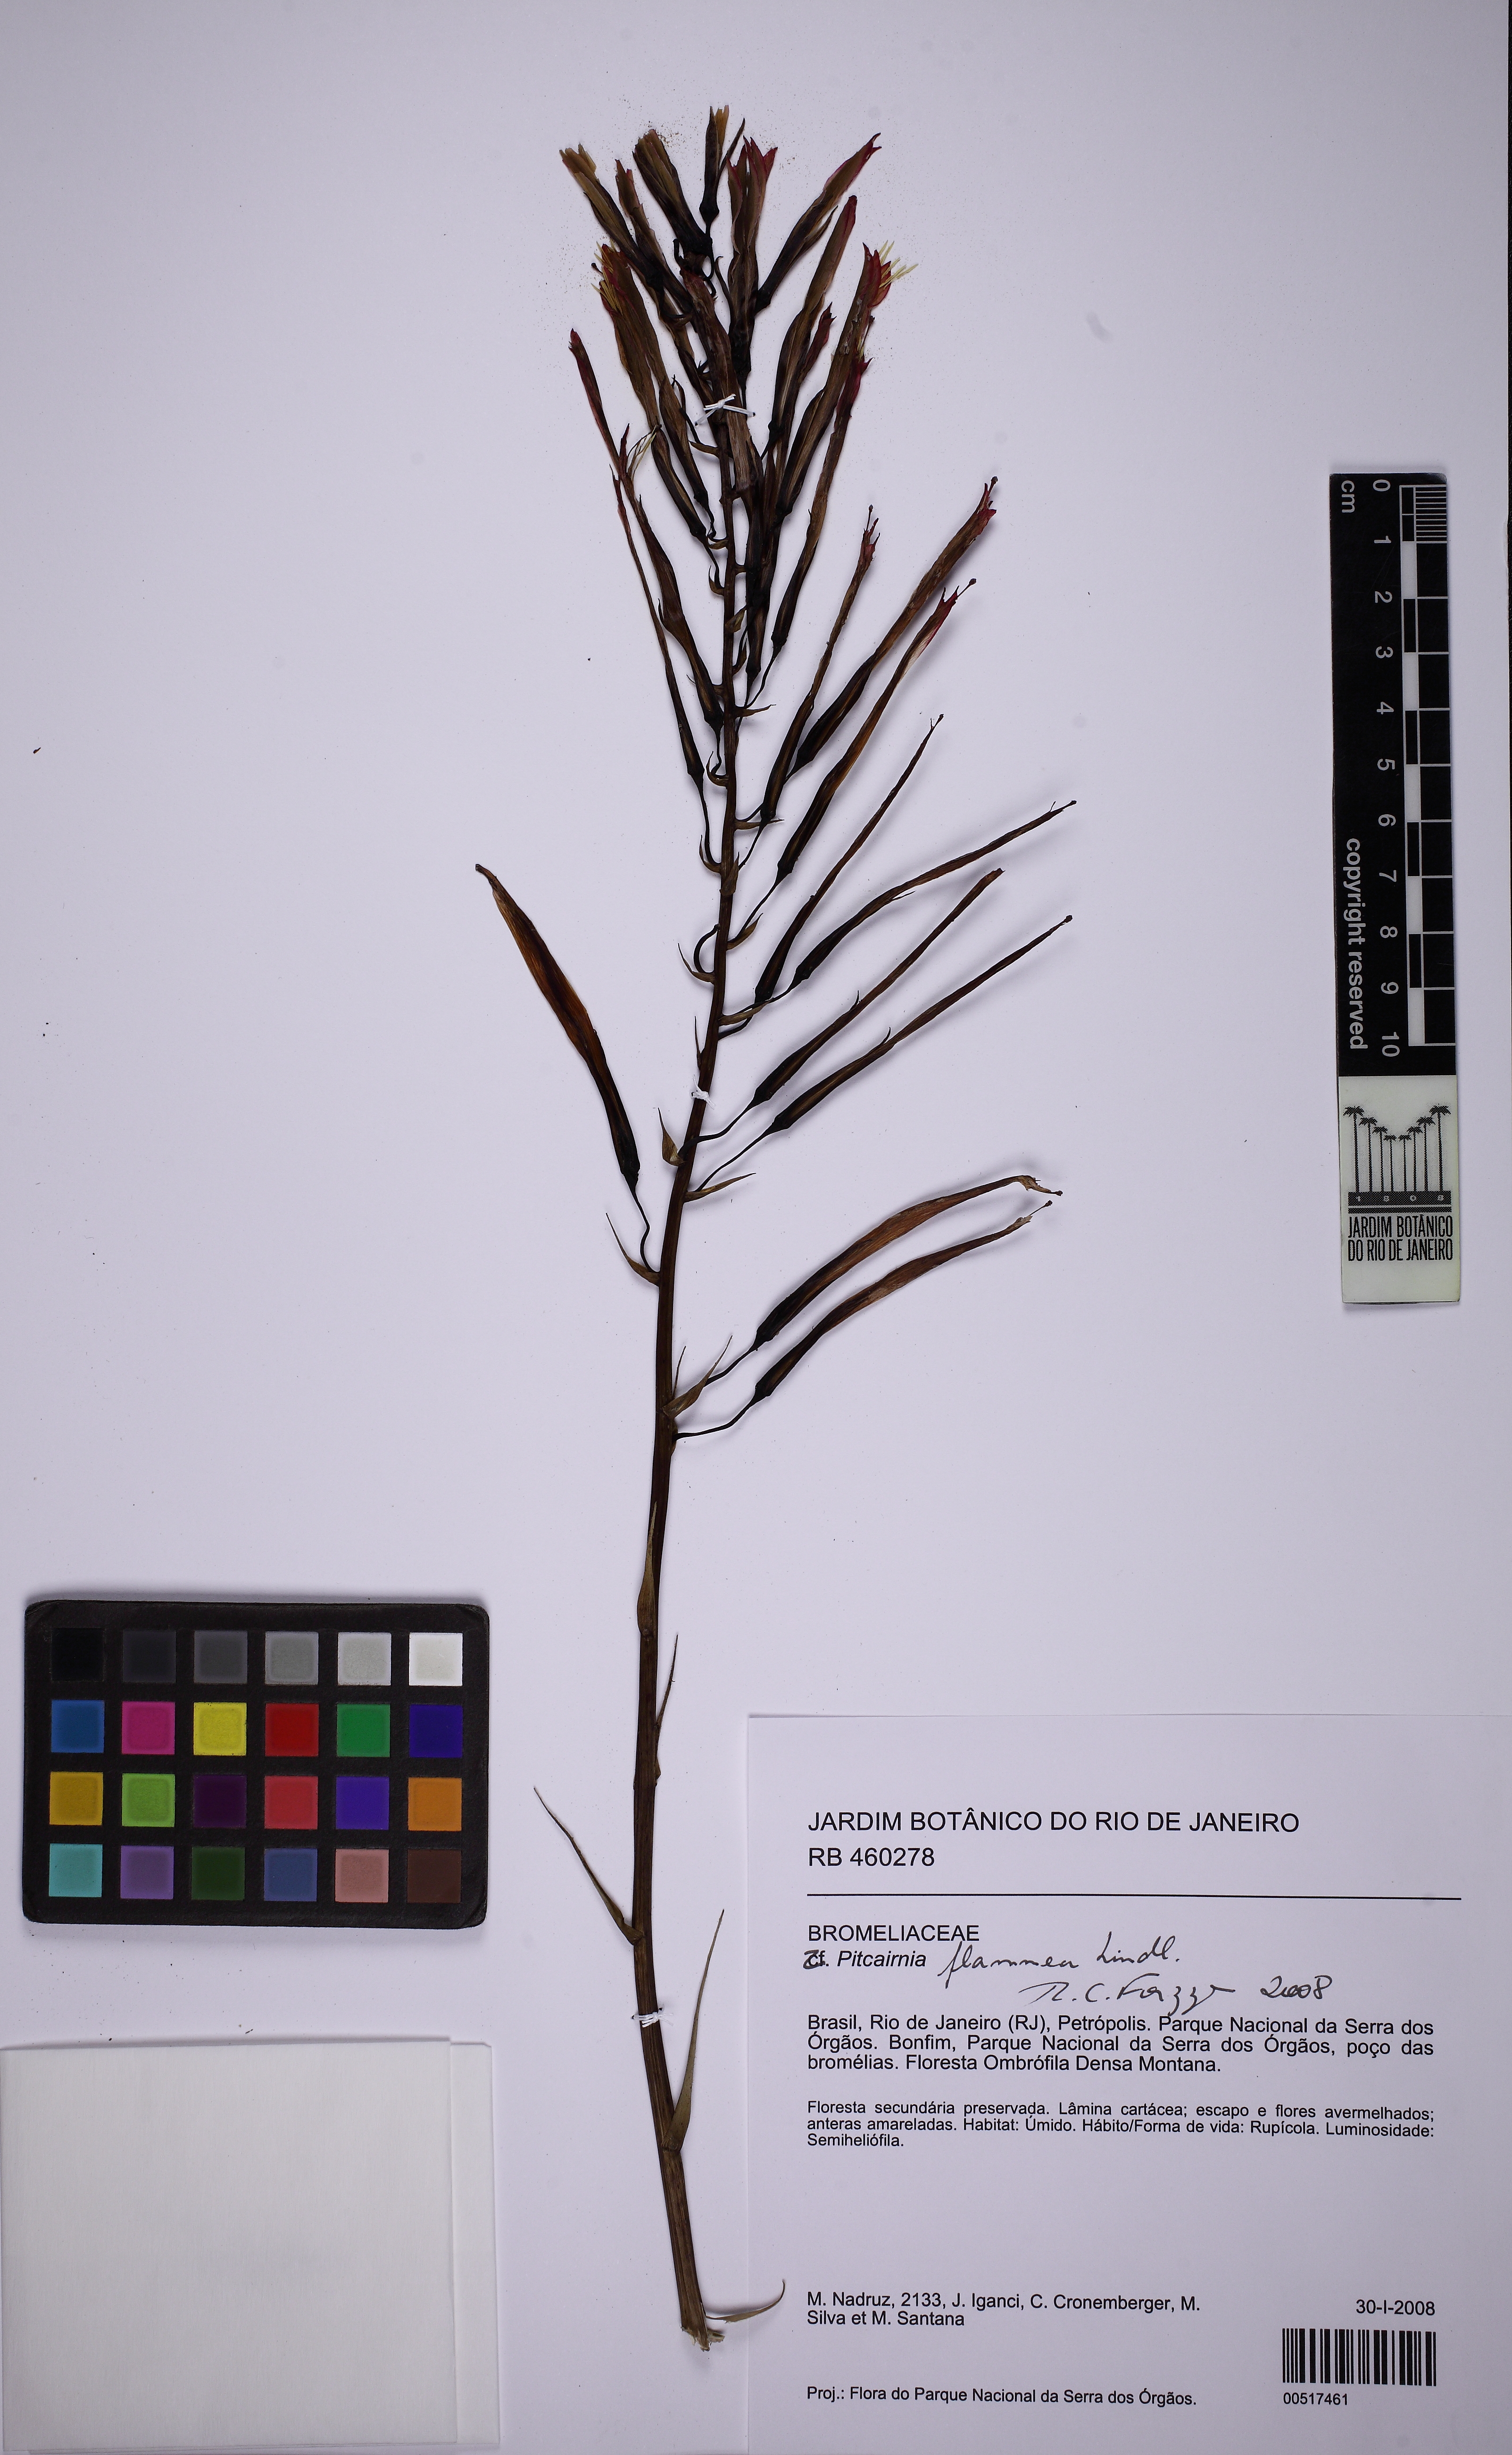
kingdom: Plantae
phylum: Tracheophyta
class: Liliopsida
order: Poales
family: Bromeliaceae
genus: Pitcairnia
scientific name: Pitcairnia flammea
